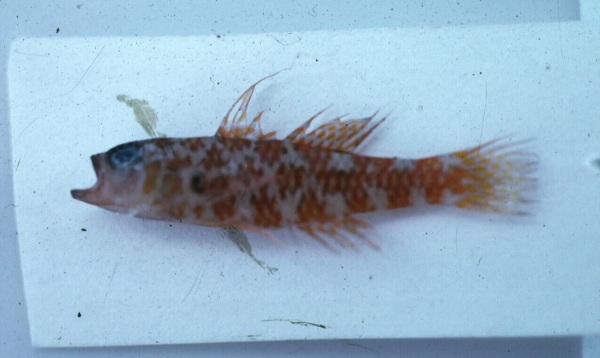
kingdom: Animalia
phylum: Chordata
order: Perciformes
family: Gobiidae
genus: Trimma
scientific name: Trimma
